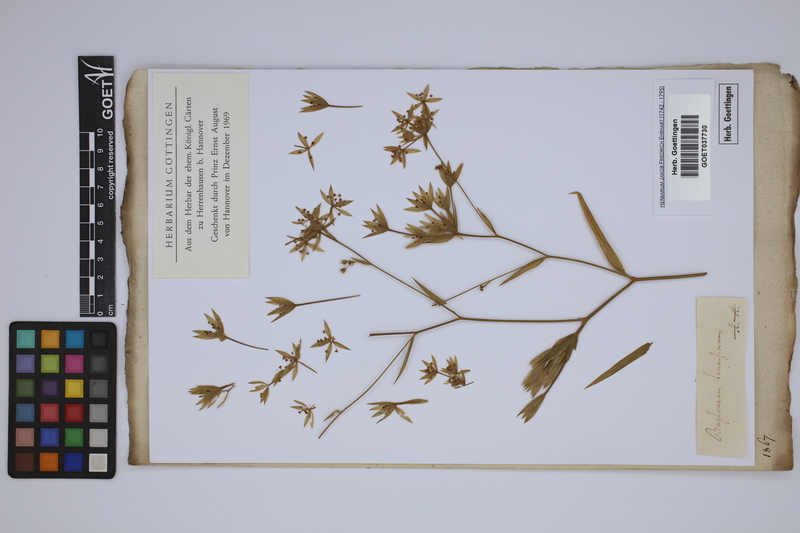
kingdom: Plantae
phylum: Tracheophyta
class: Magnoliopsida
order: Apiales
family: Apiaceae
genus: Bupleurum
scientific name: Bupleurum tenuissimum
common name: Slender hare's-ear
